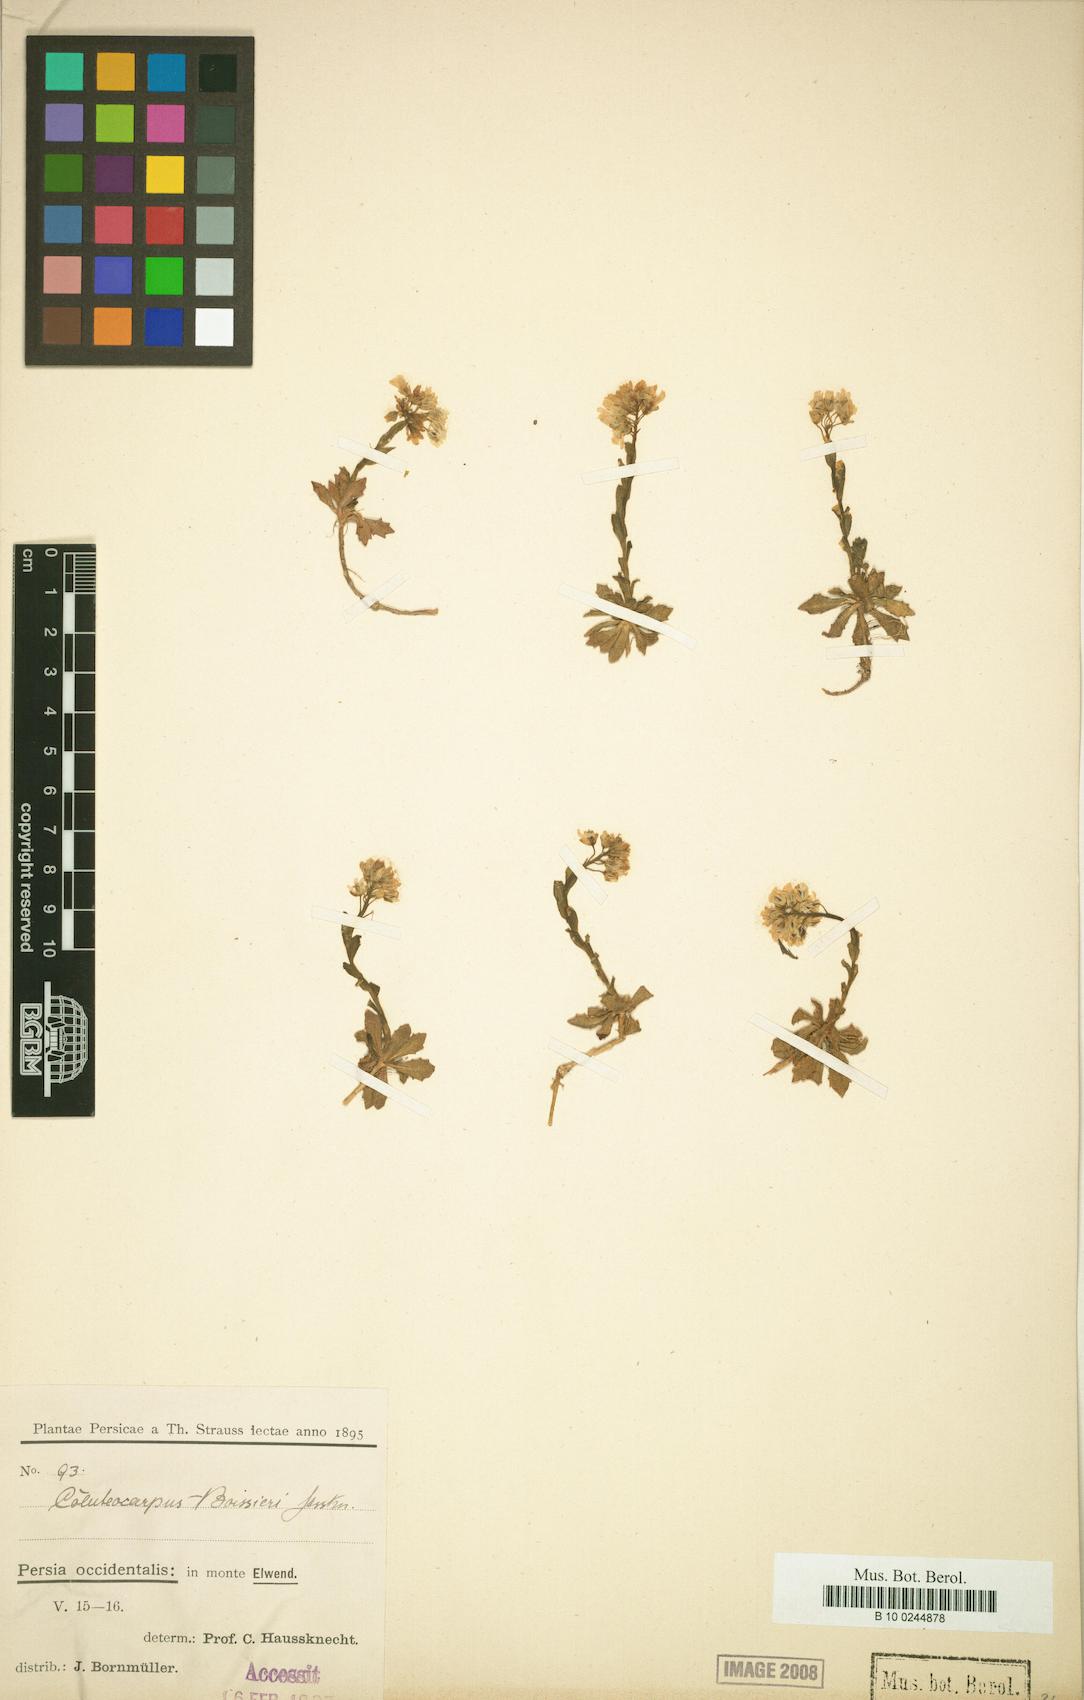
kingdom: Plantae
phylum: Tracheophyta
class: Magnoliopsida
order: Brassicales
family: Brassicaceae
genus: Noccaea
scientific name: Noccaea boissieri
